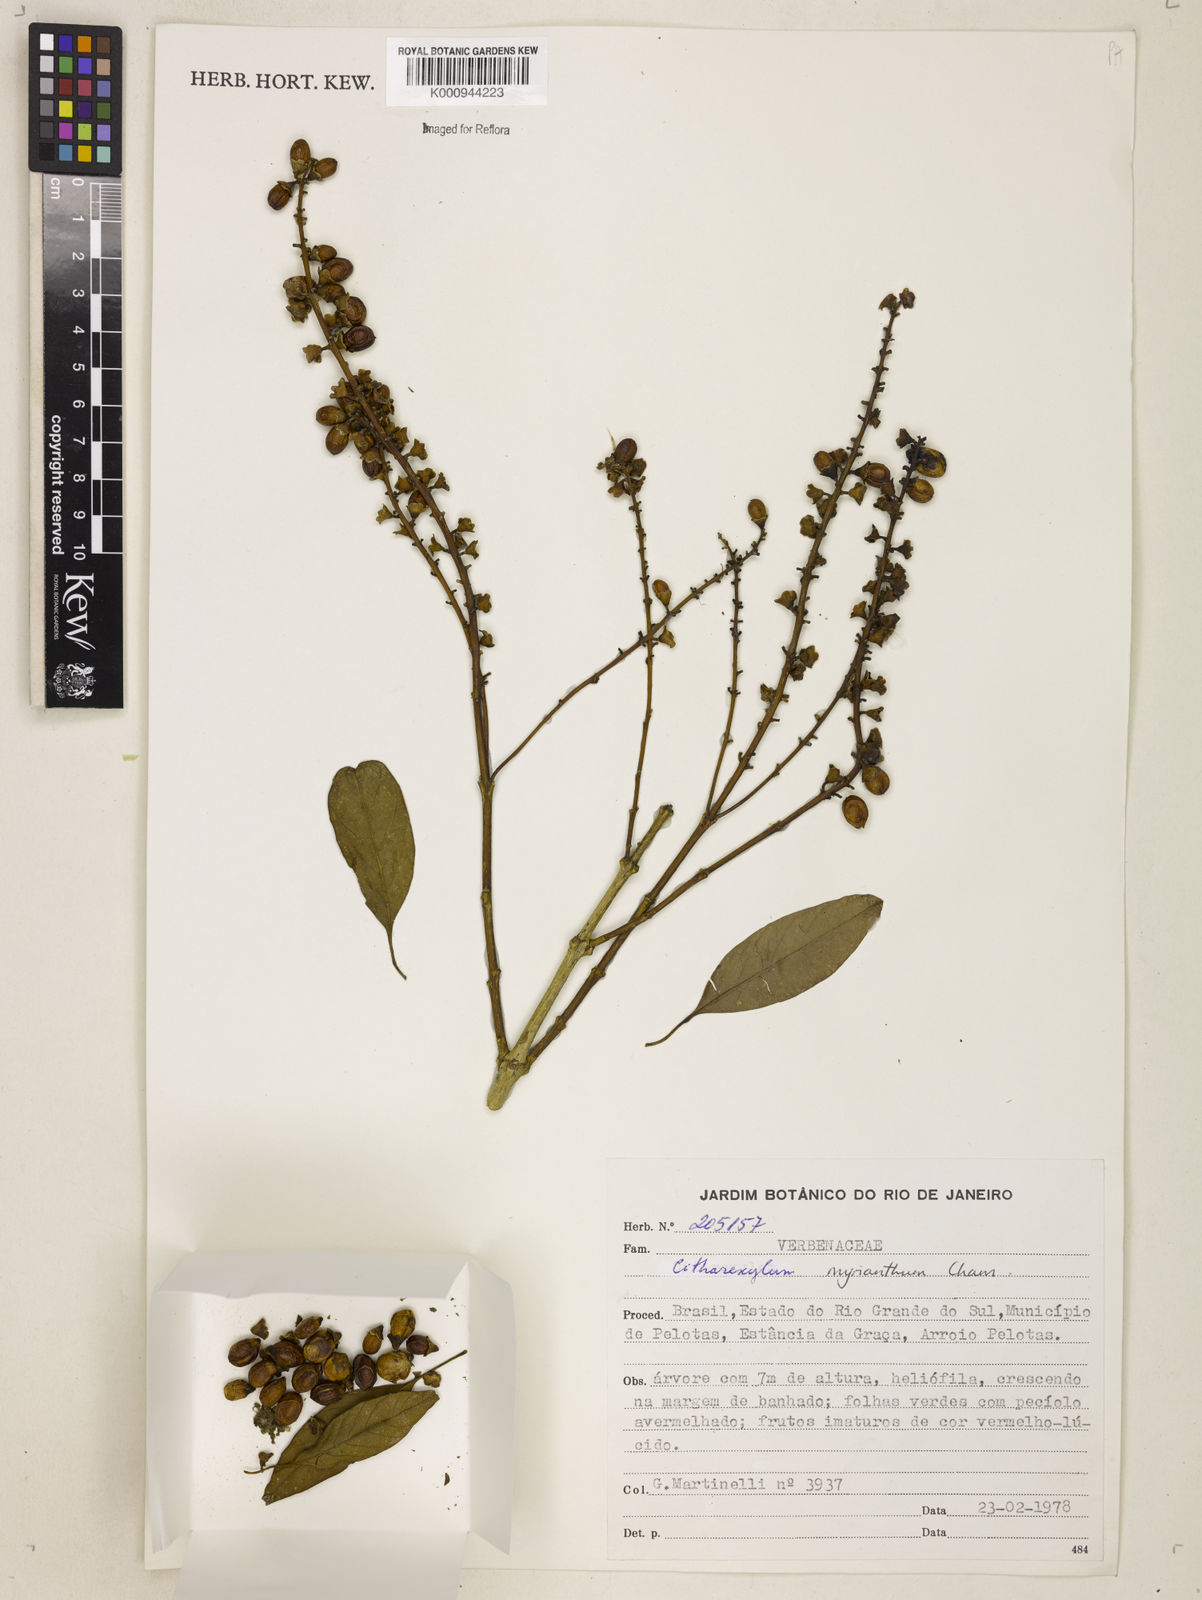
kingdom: Plantae
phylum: Tracheophyta
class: Magnoliopsida
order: Lamiales
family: Verbenaceae
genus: Citharexylum
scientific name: Citharexylum myrianthum
